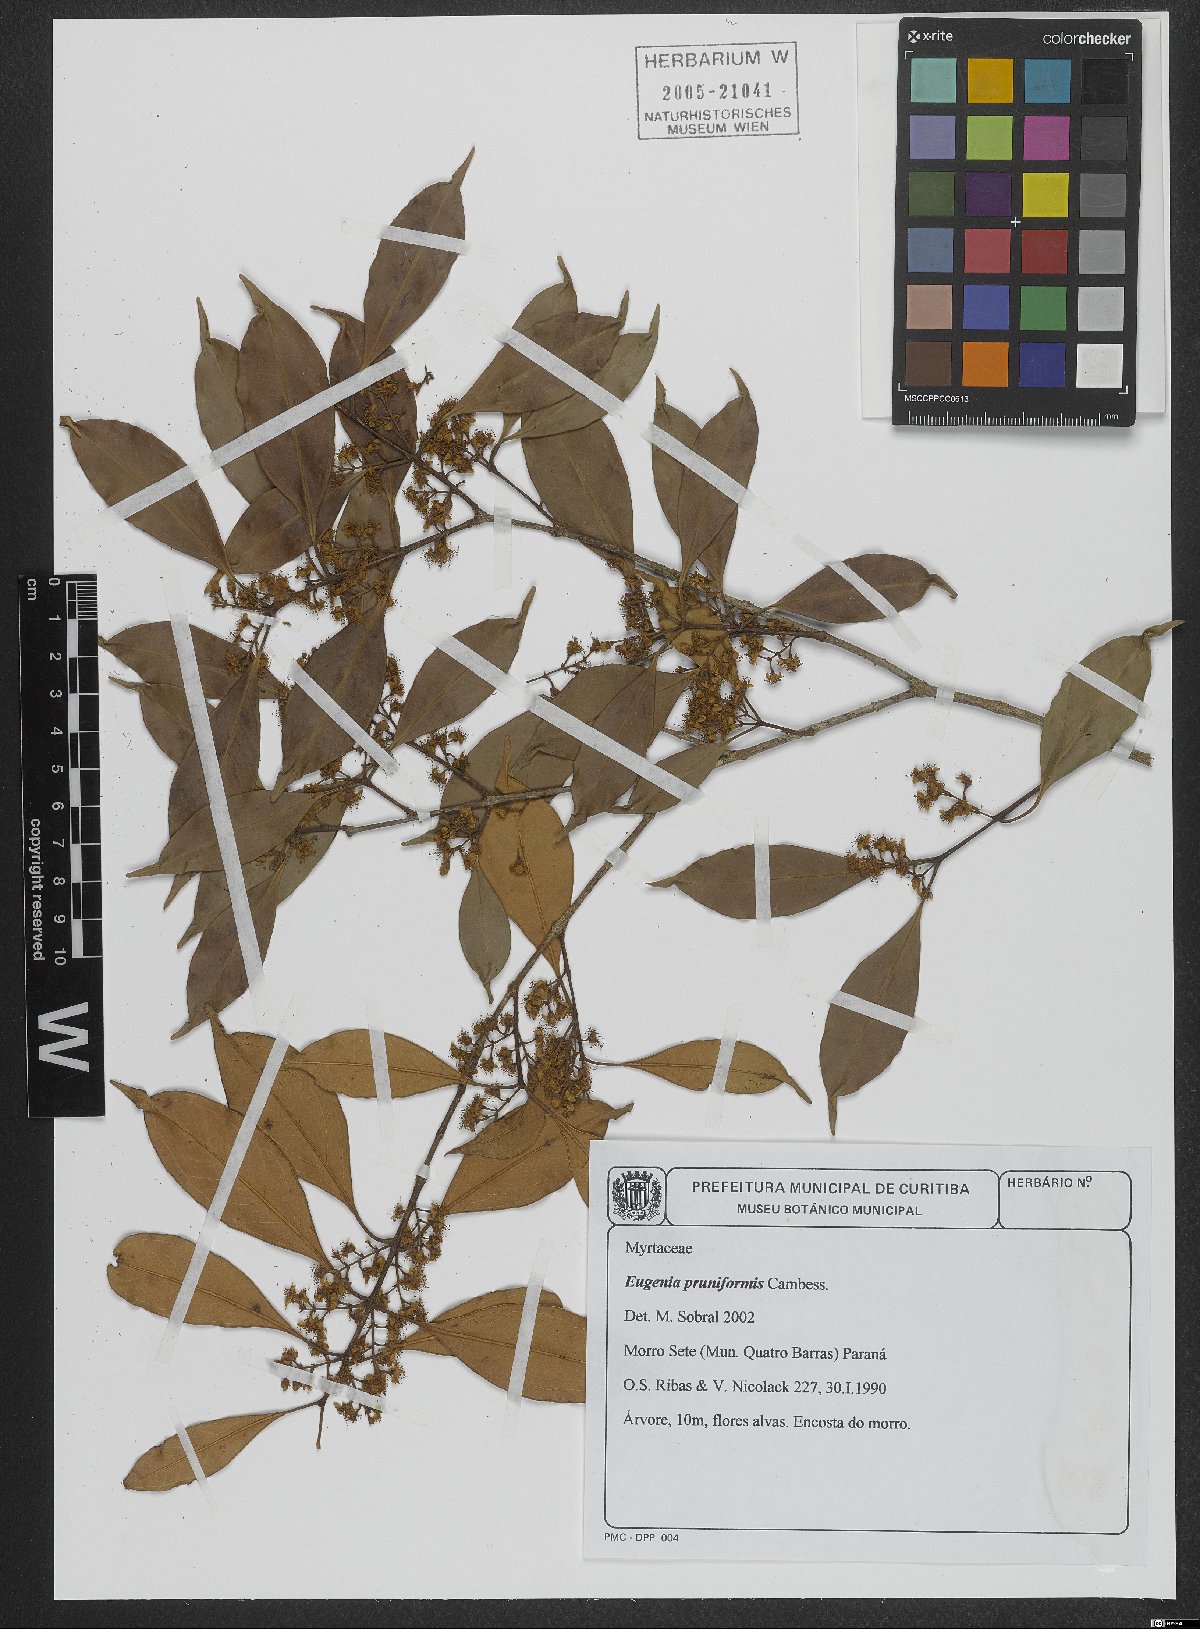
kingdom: Plantae
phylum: Tracheophyta
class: Magnoliopsida
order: Myrtales
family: Myrtaceae
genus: Eugenia
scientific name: Eugenia pruniformis
